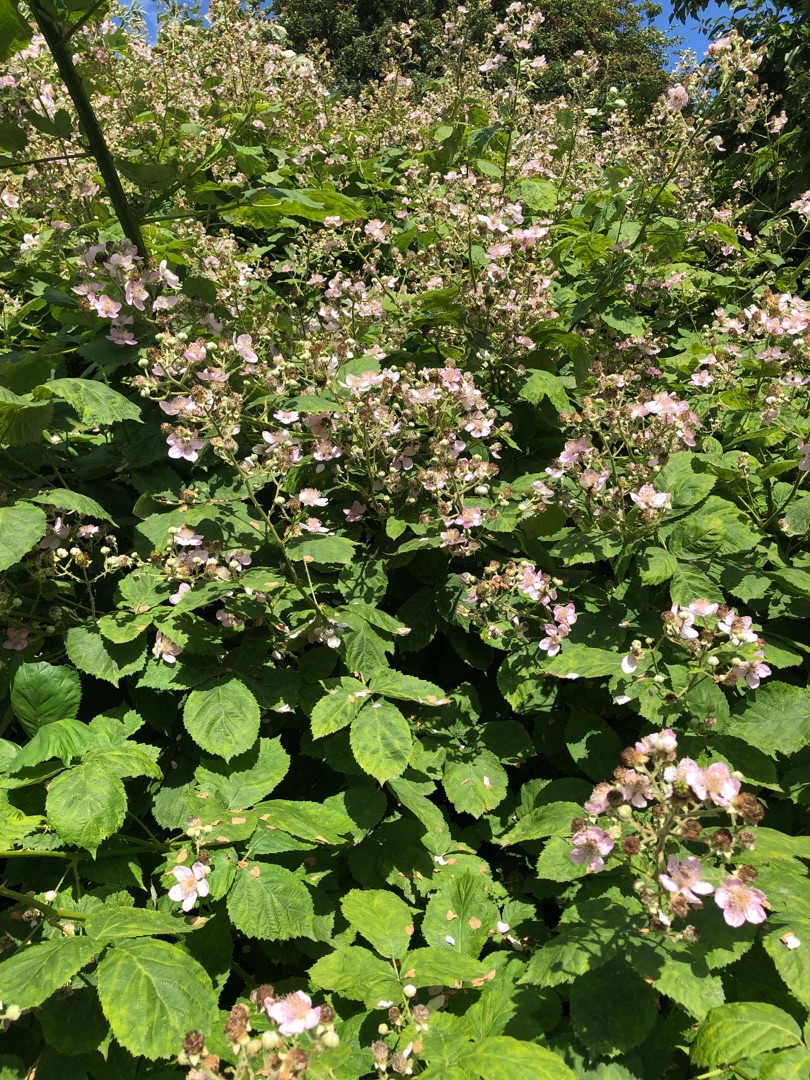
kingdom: Plantae
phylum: Tracheophyta
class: Magnoliopsida
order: Rosales
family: Rosaceae
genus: Rubus
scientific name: Rubus armeniacus
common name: Armensk brombær
